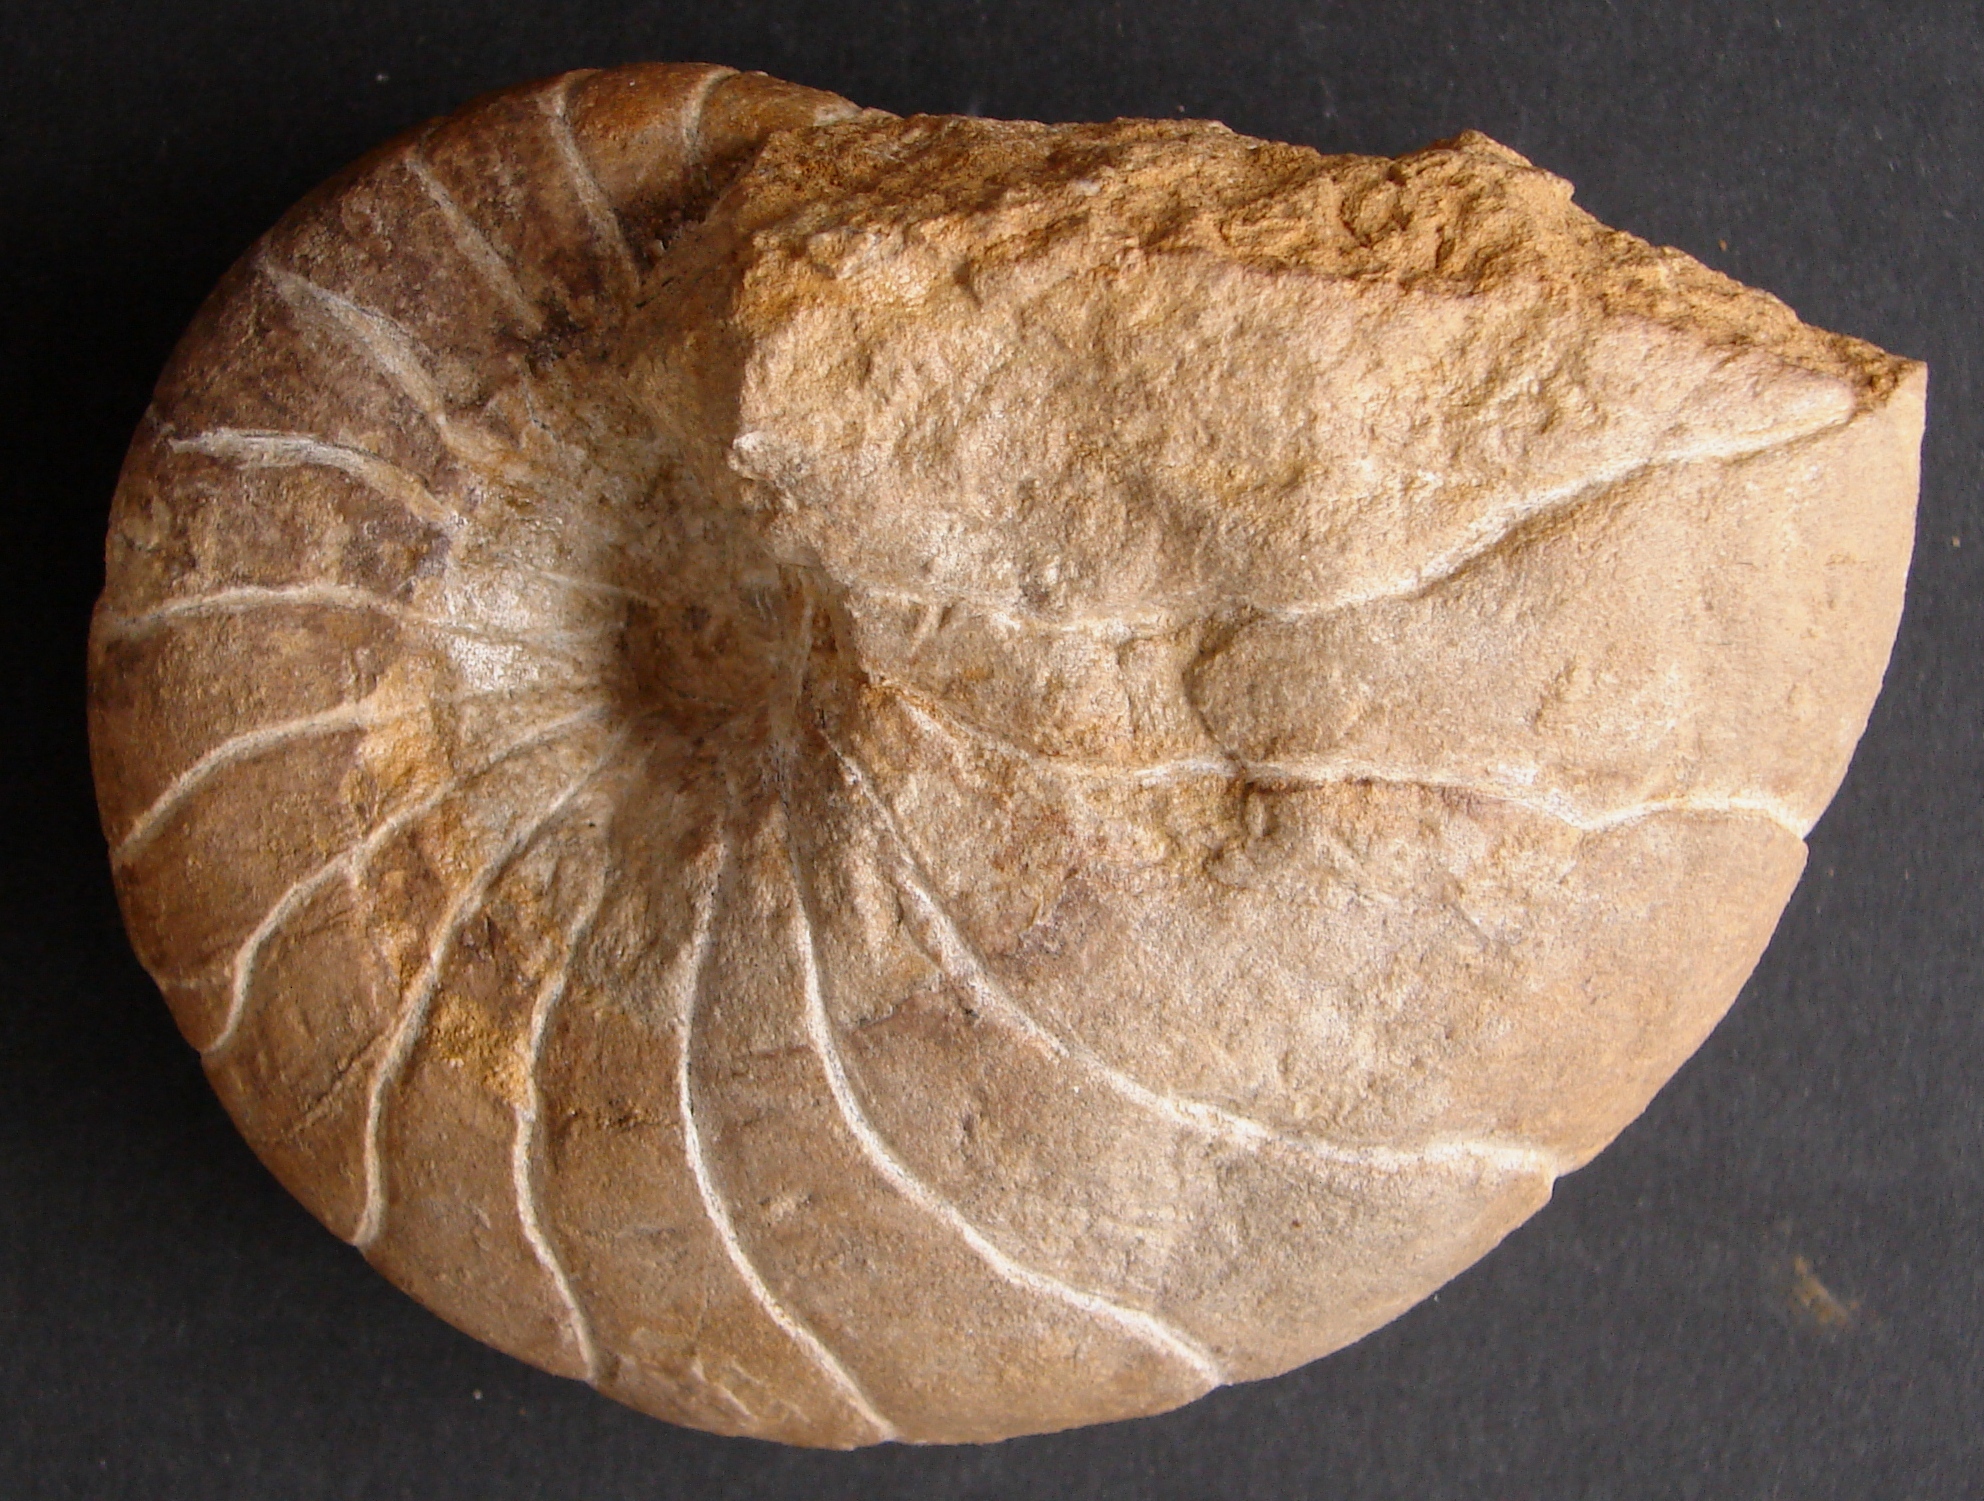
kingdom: Animalia
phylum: Mollusca
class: Cephalopoda
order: Nautilida
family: Nautilidae
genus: Cenoceras
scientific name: Cenoceras
